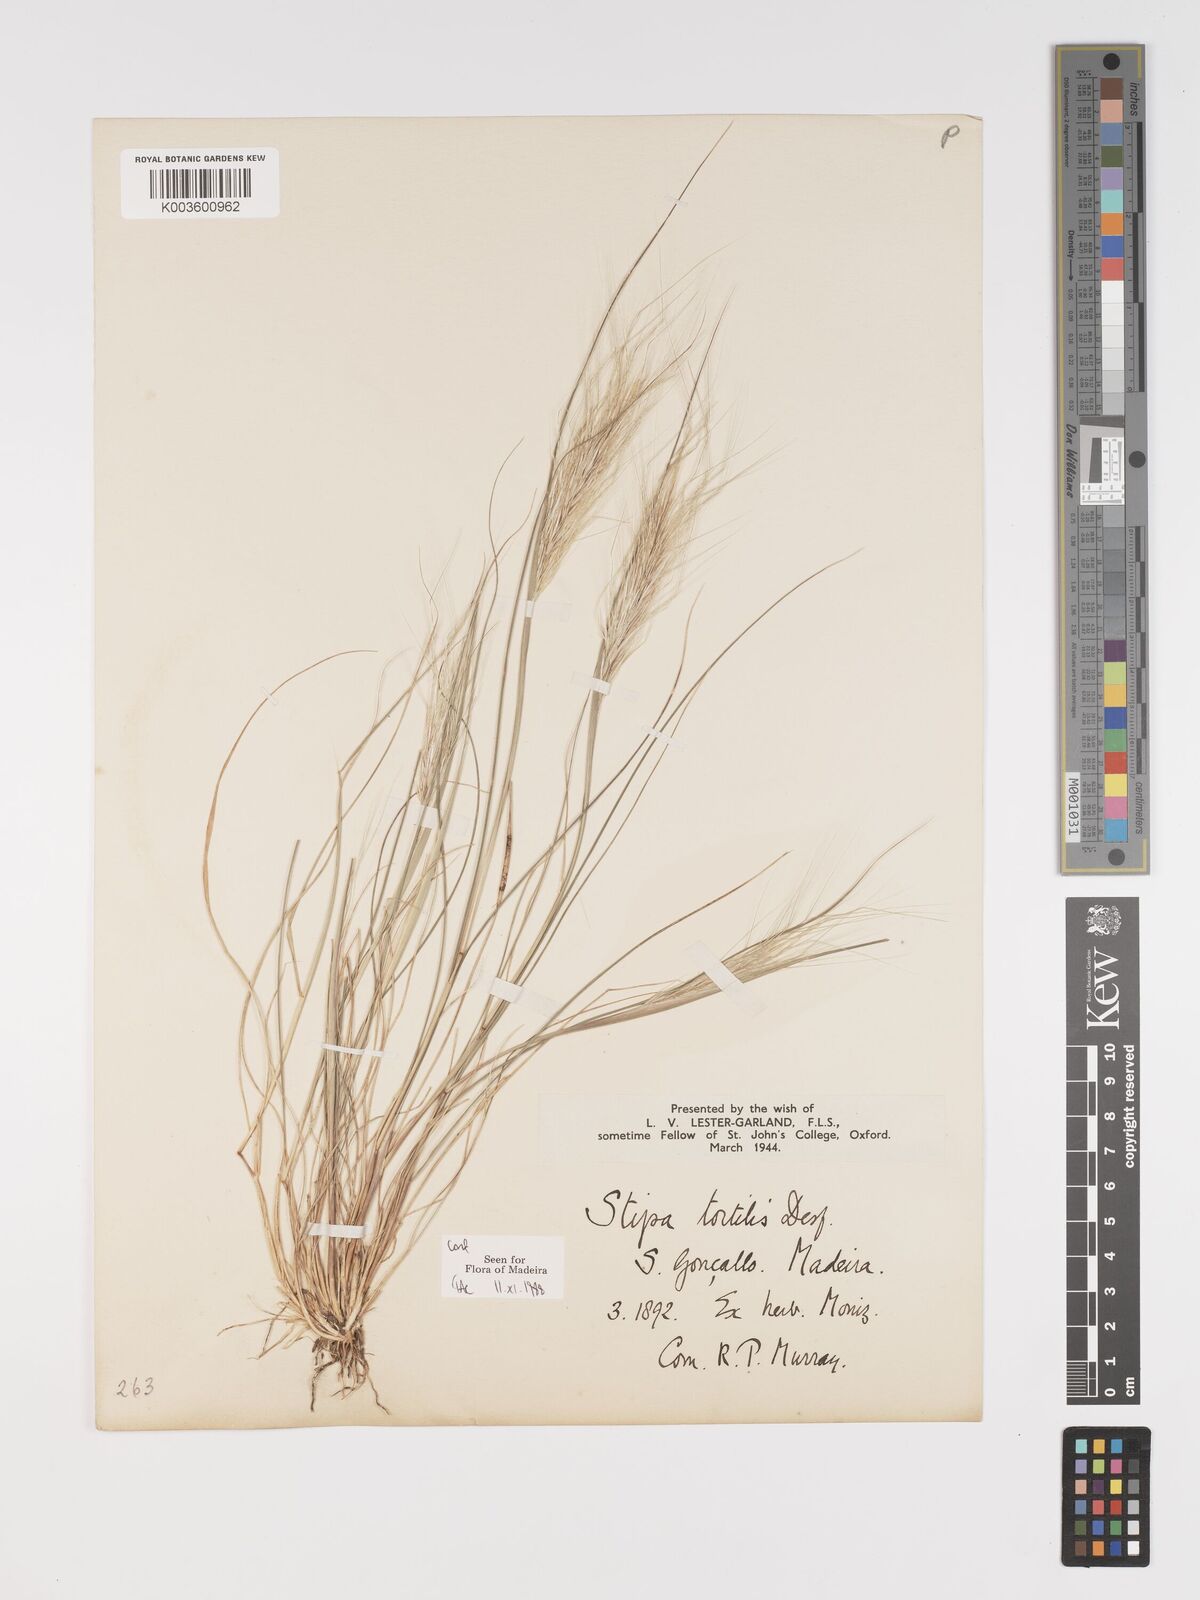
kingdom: Plantae
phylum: Tracheophyta
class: Liliopsida
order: Poales
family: Poaceae
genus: Stipellula
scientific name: Stipellula capensis
